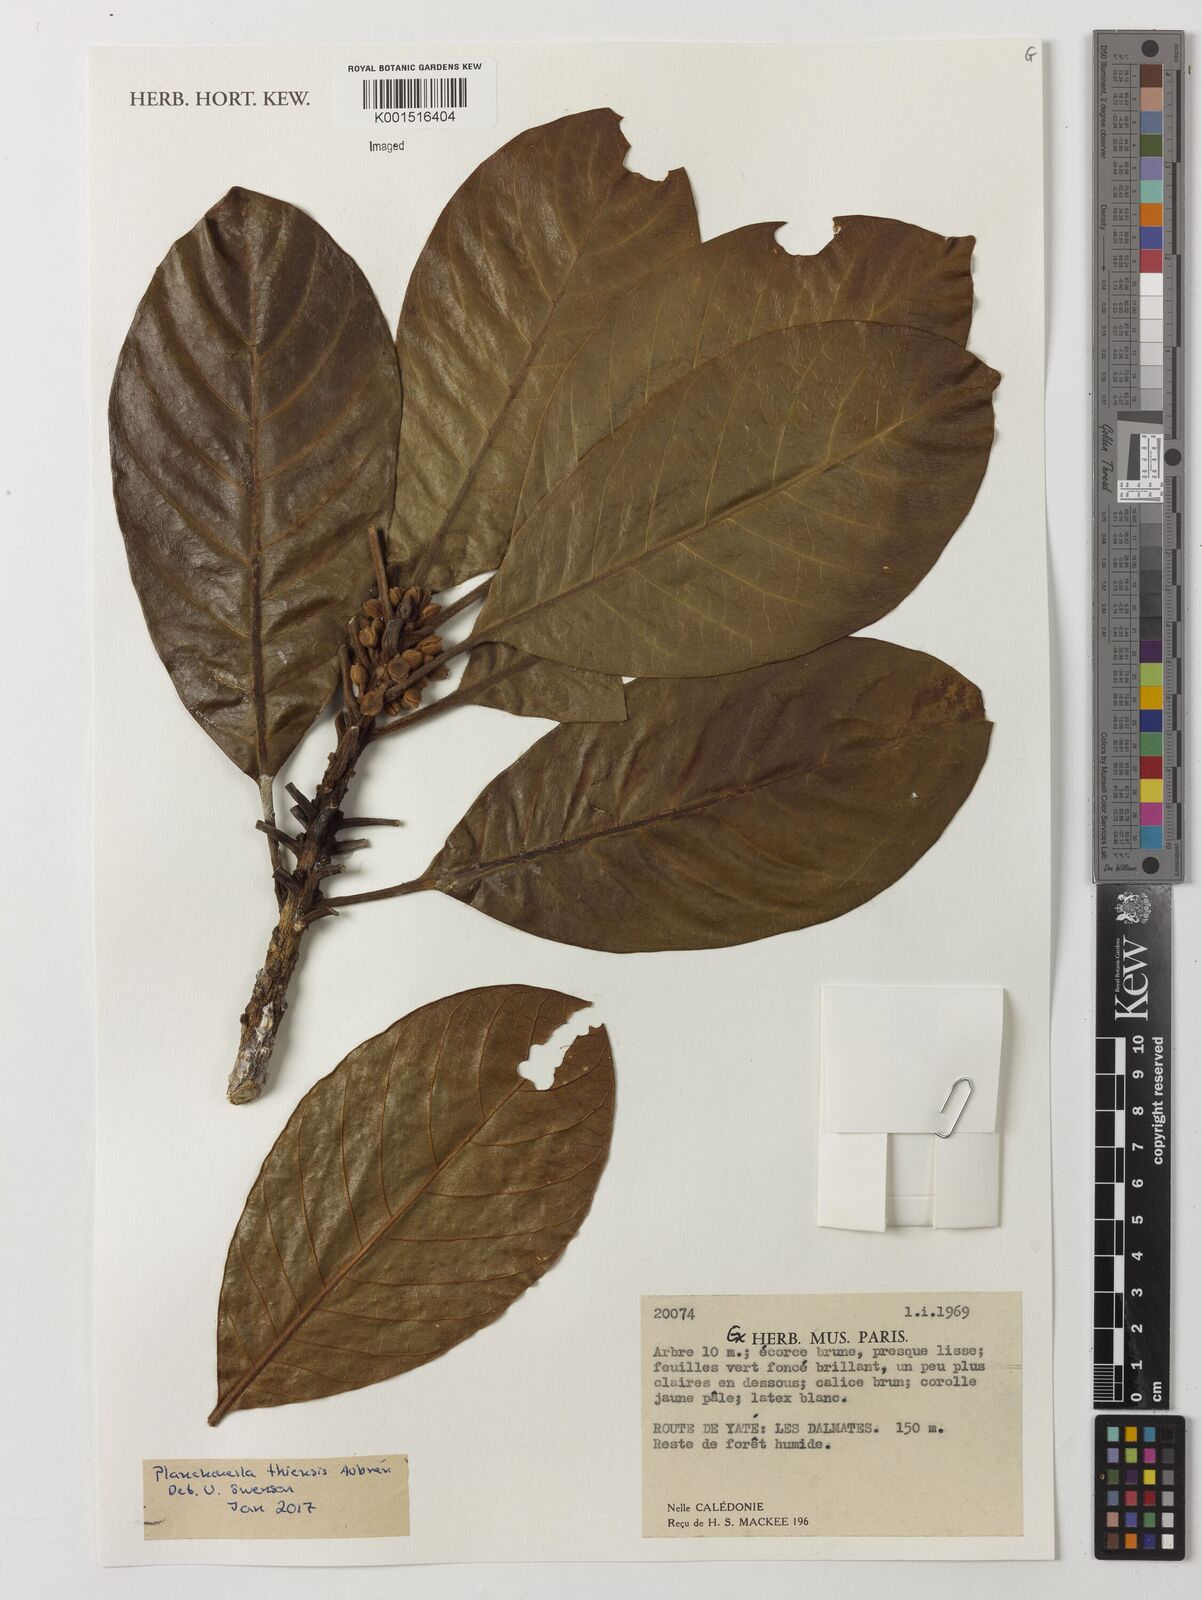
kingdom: Plantae
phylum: Tracheophyta
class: Magnoliopsida
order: Ericales
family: Sapotaceae
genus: Planchonella
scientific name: Planchonella thiensis
